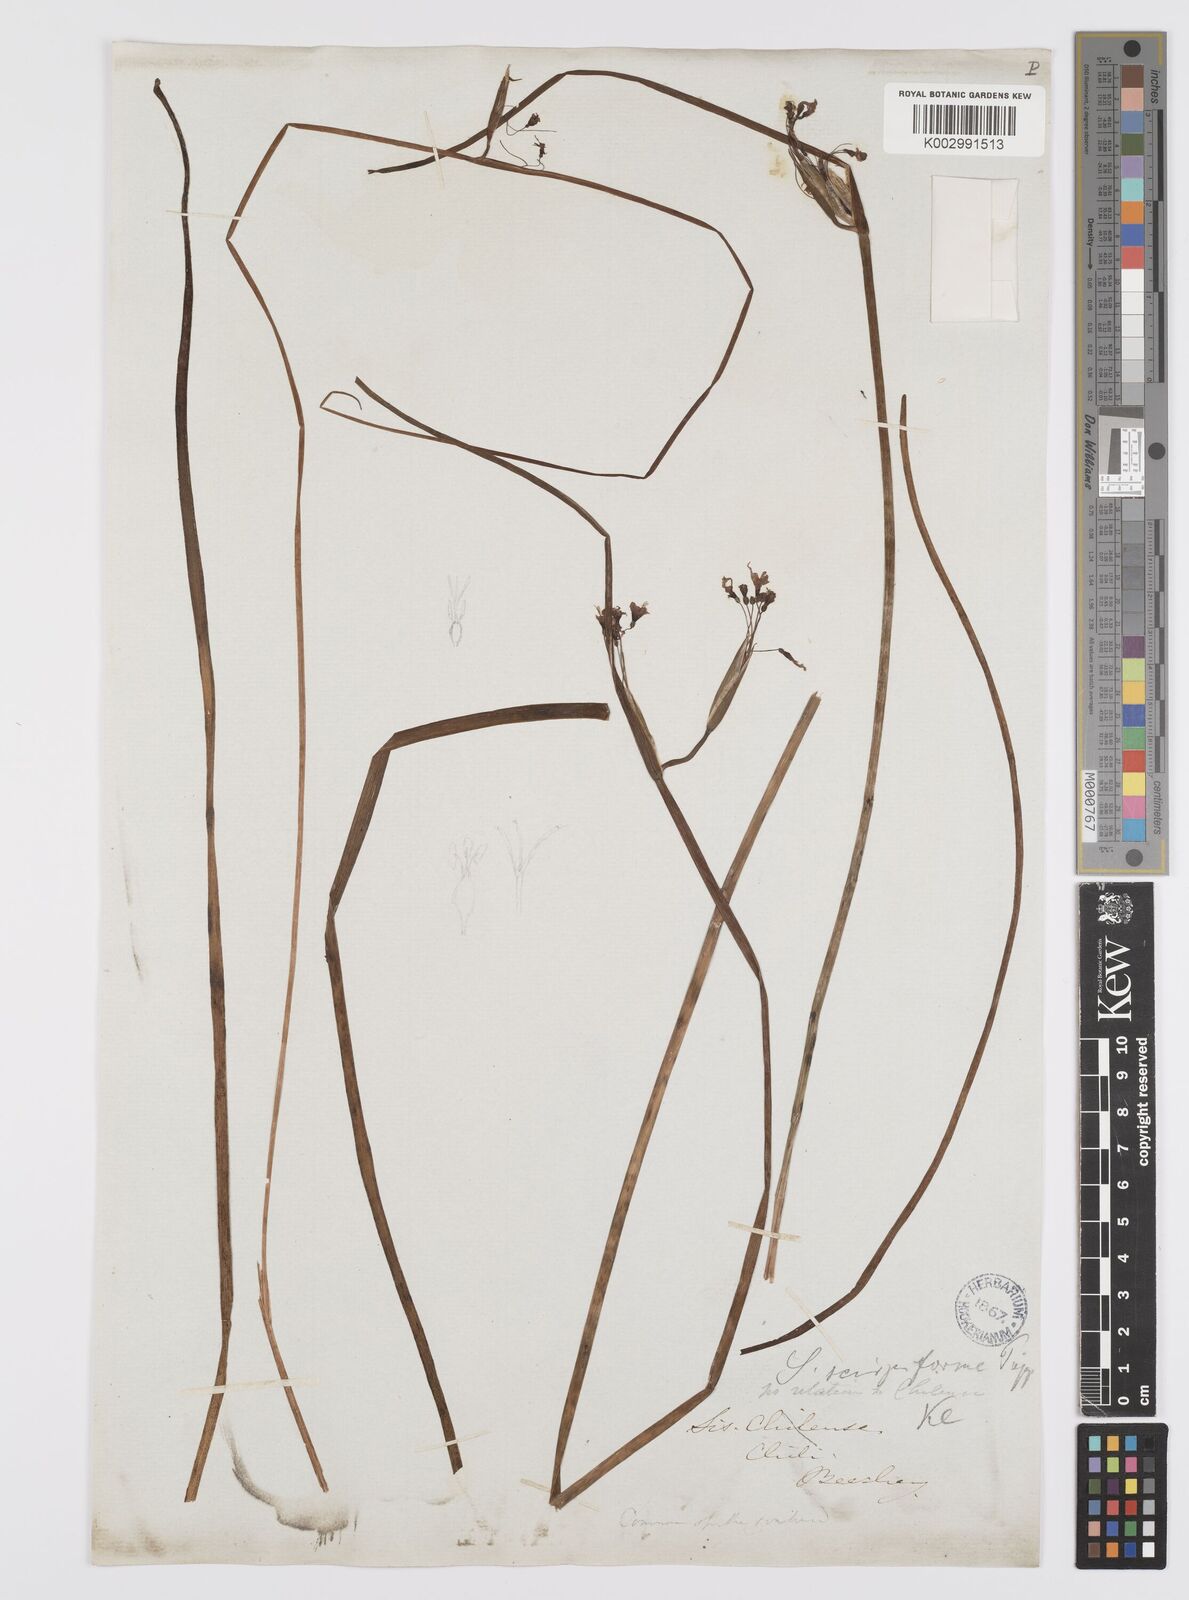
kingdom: Plantae
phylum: Tracheophyta
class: Liliopsida
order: Asparagales
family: Iridaceae
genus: Olsynium
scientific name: Olsynium junceum
